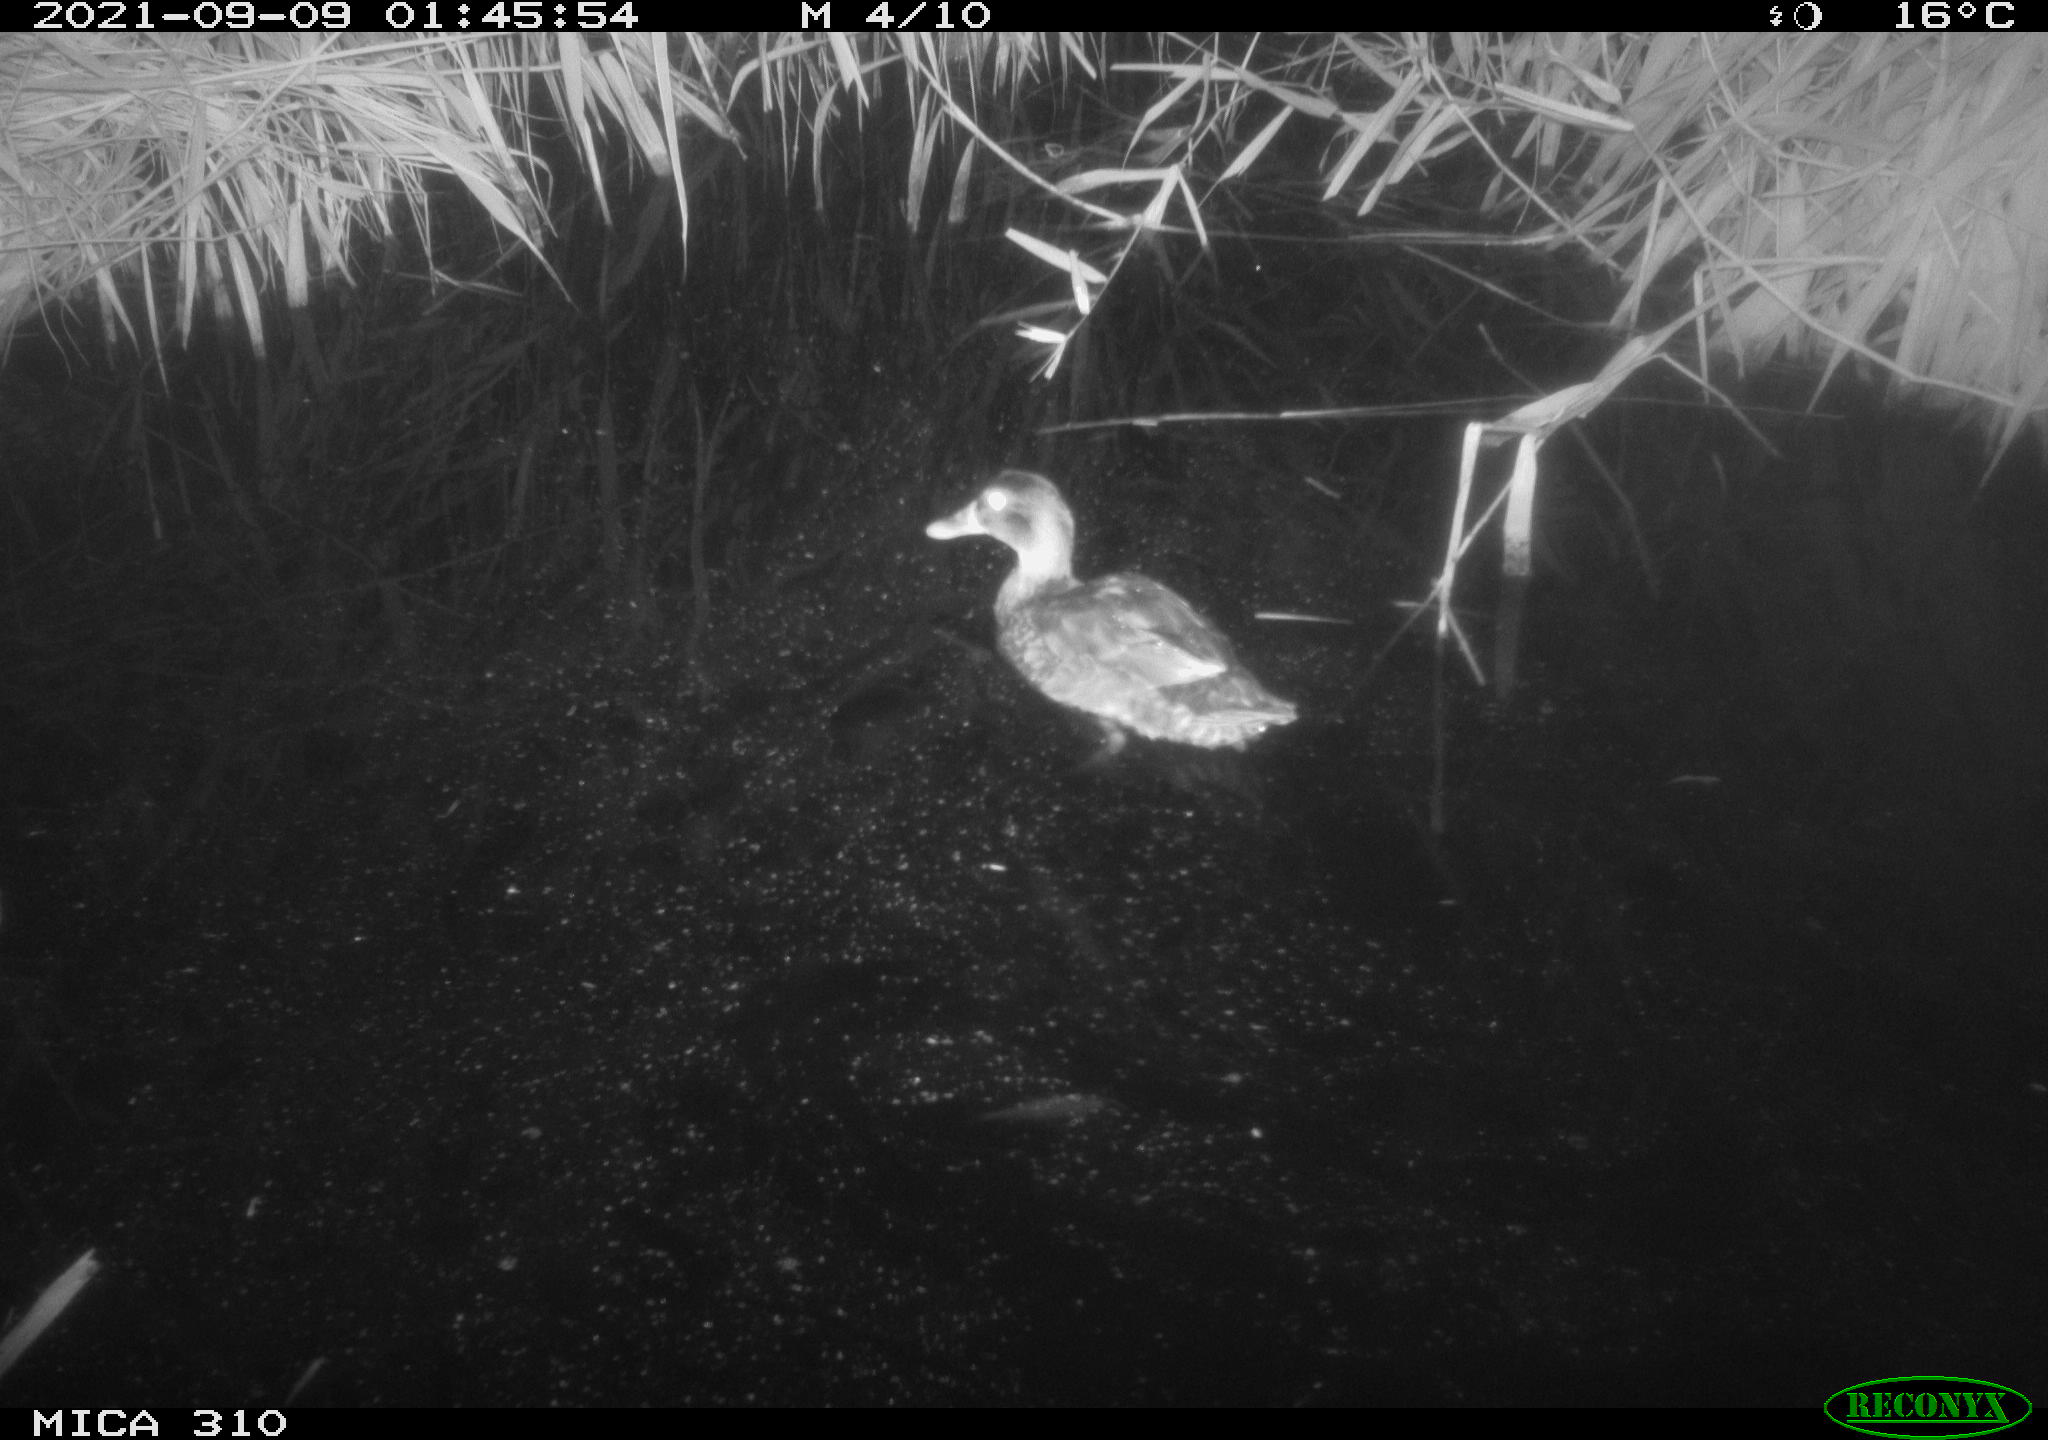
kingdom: Animalia
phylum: Chordata
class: Aves
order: Anseriformes
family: Anatidae
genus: Mareca
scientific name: Mareca strepera
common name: Gadwall
